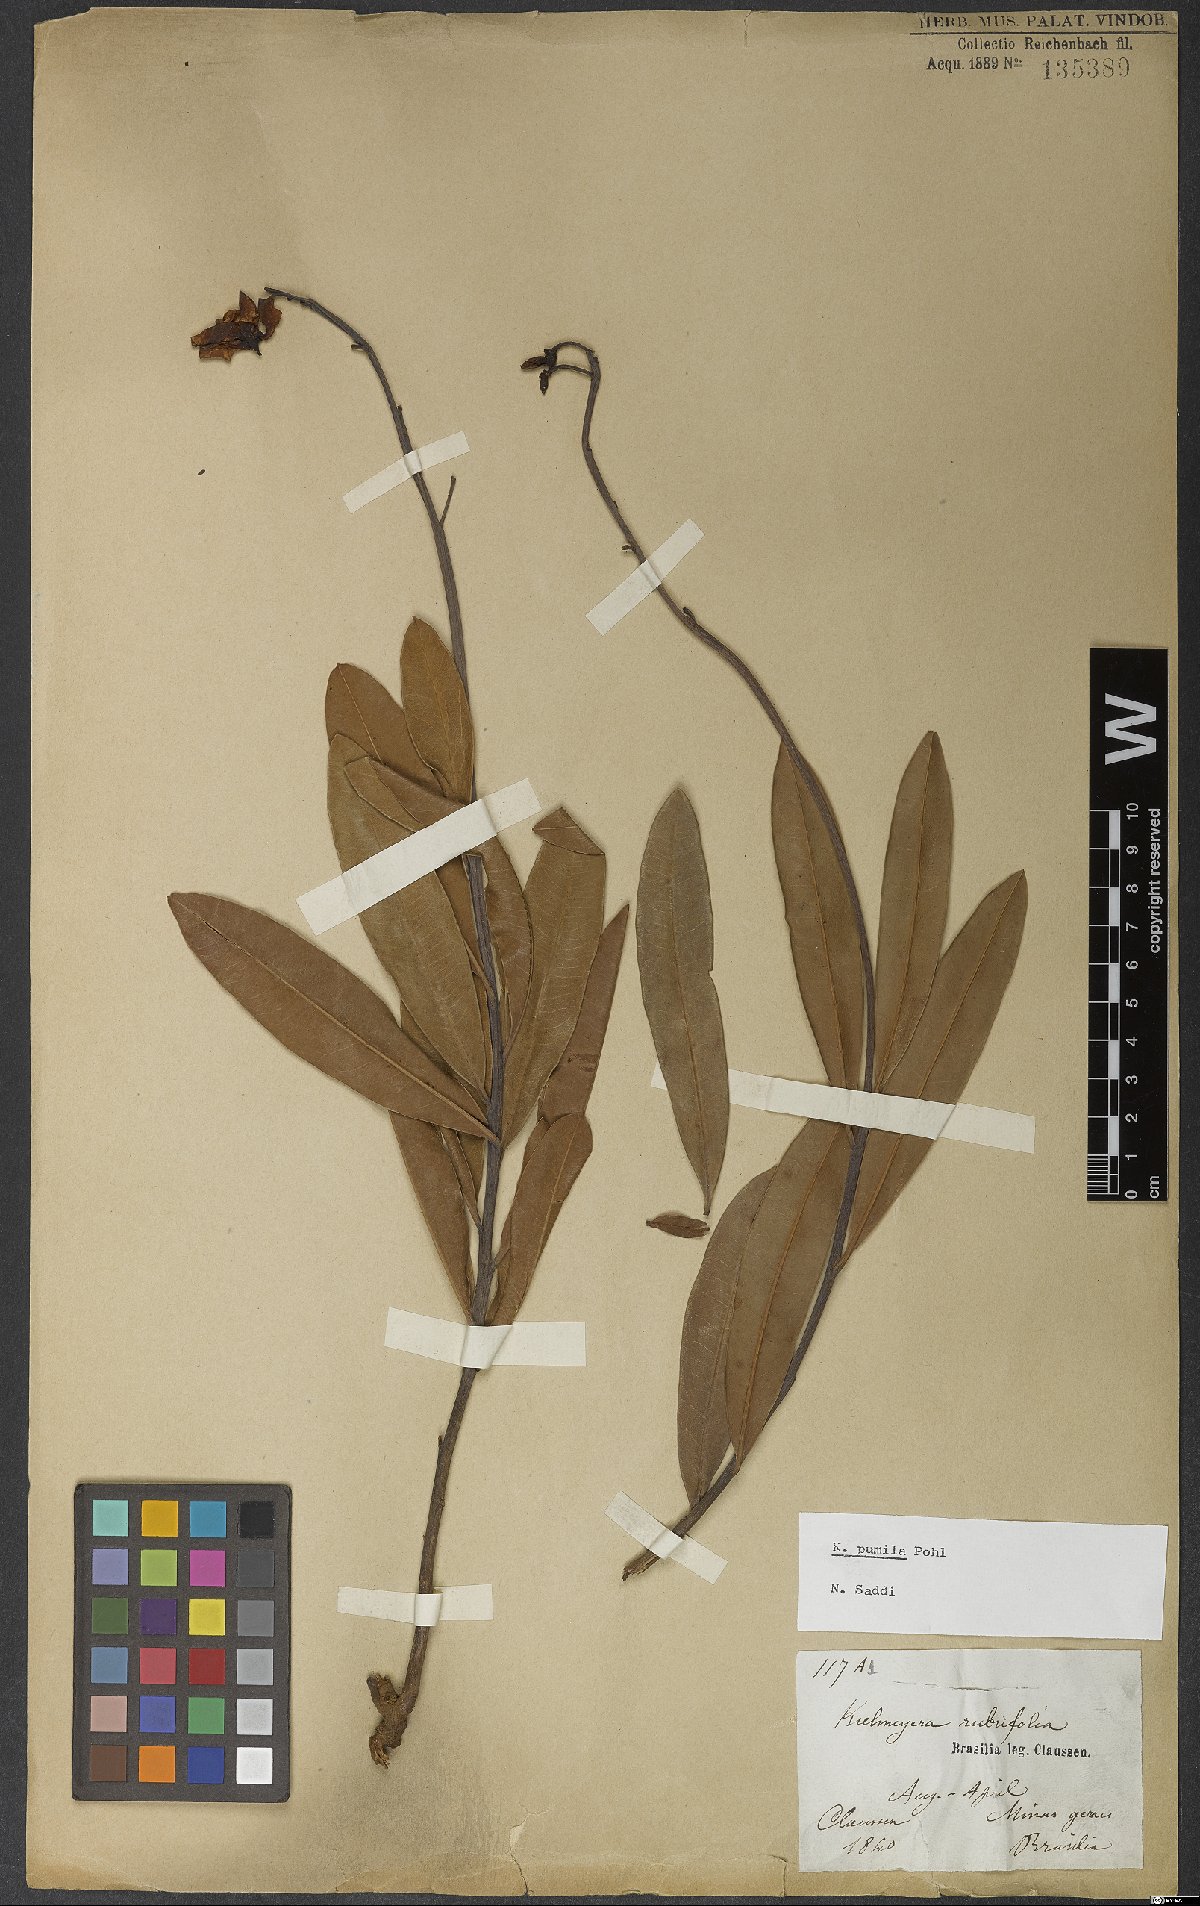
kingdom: Plantae
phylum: Tracheophyta
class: Magnoliopsida
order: Malpighiales
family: Calophyllaceae
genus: Kielmeyera
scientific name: Kielmeyera pumila
